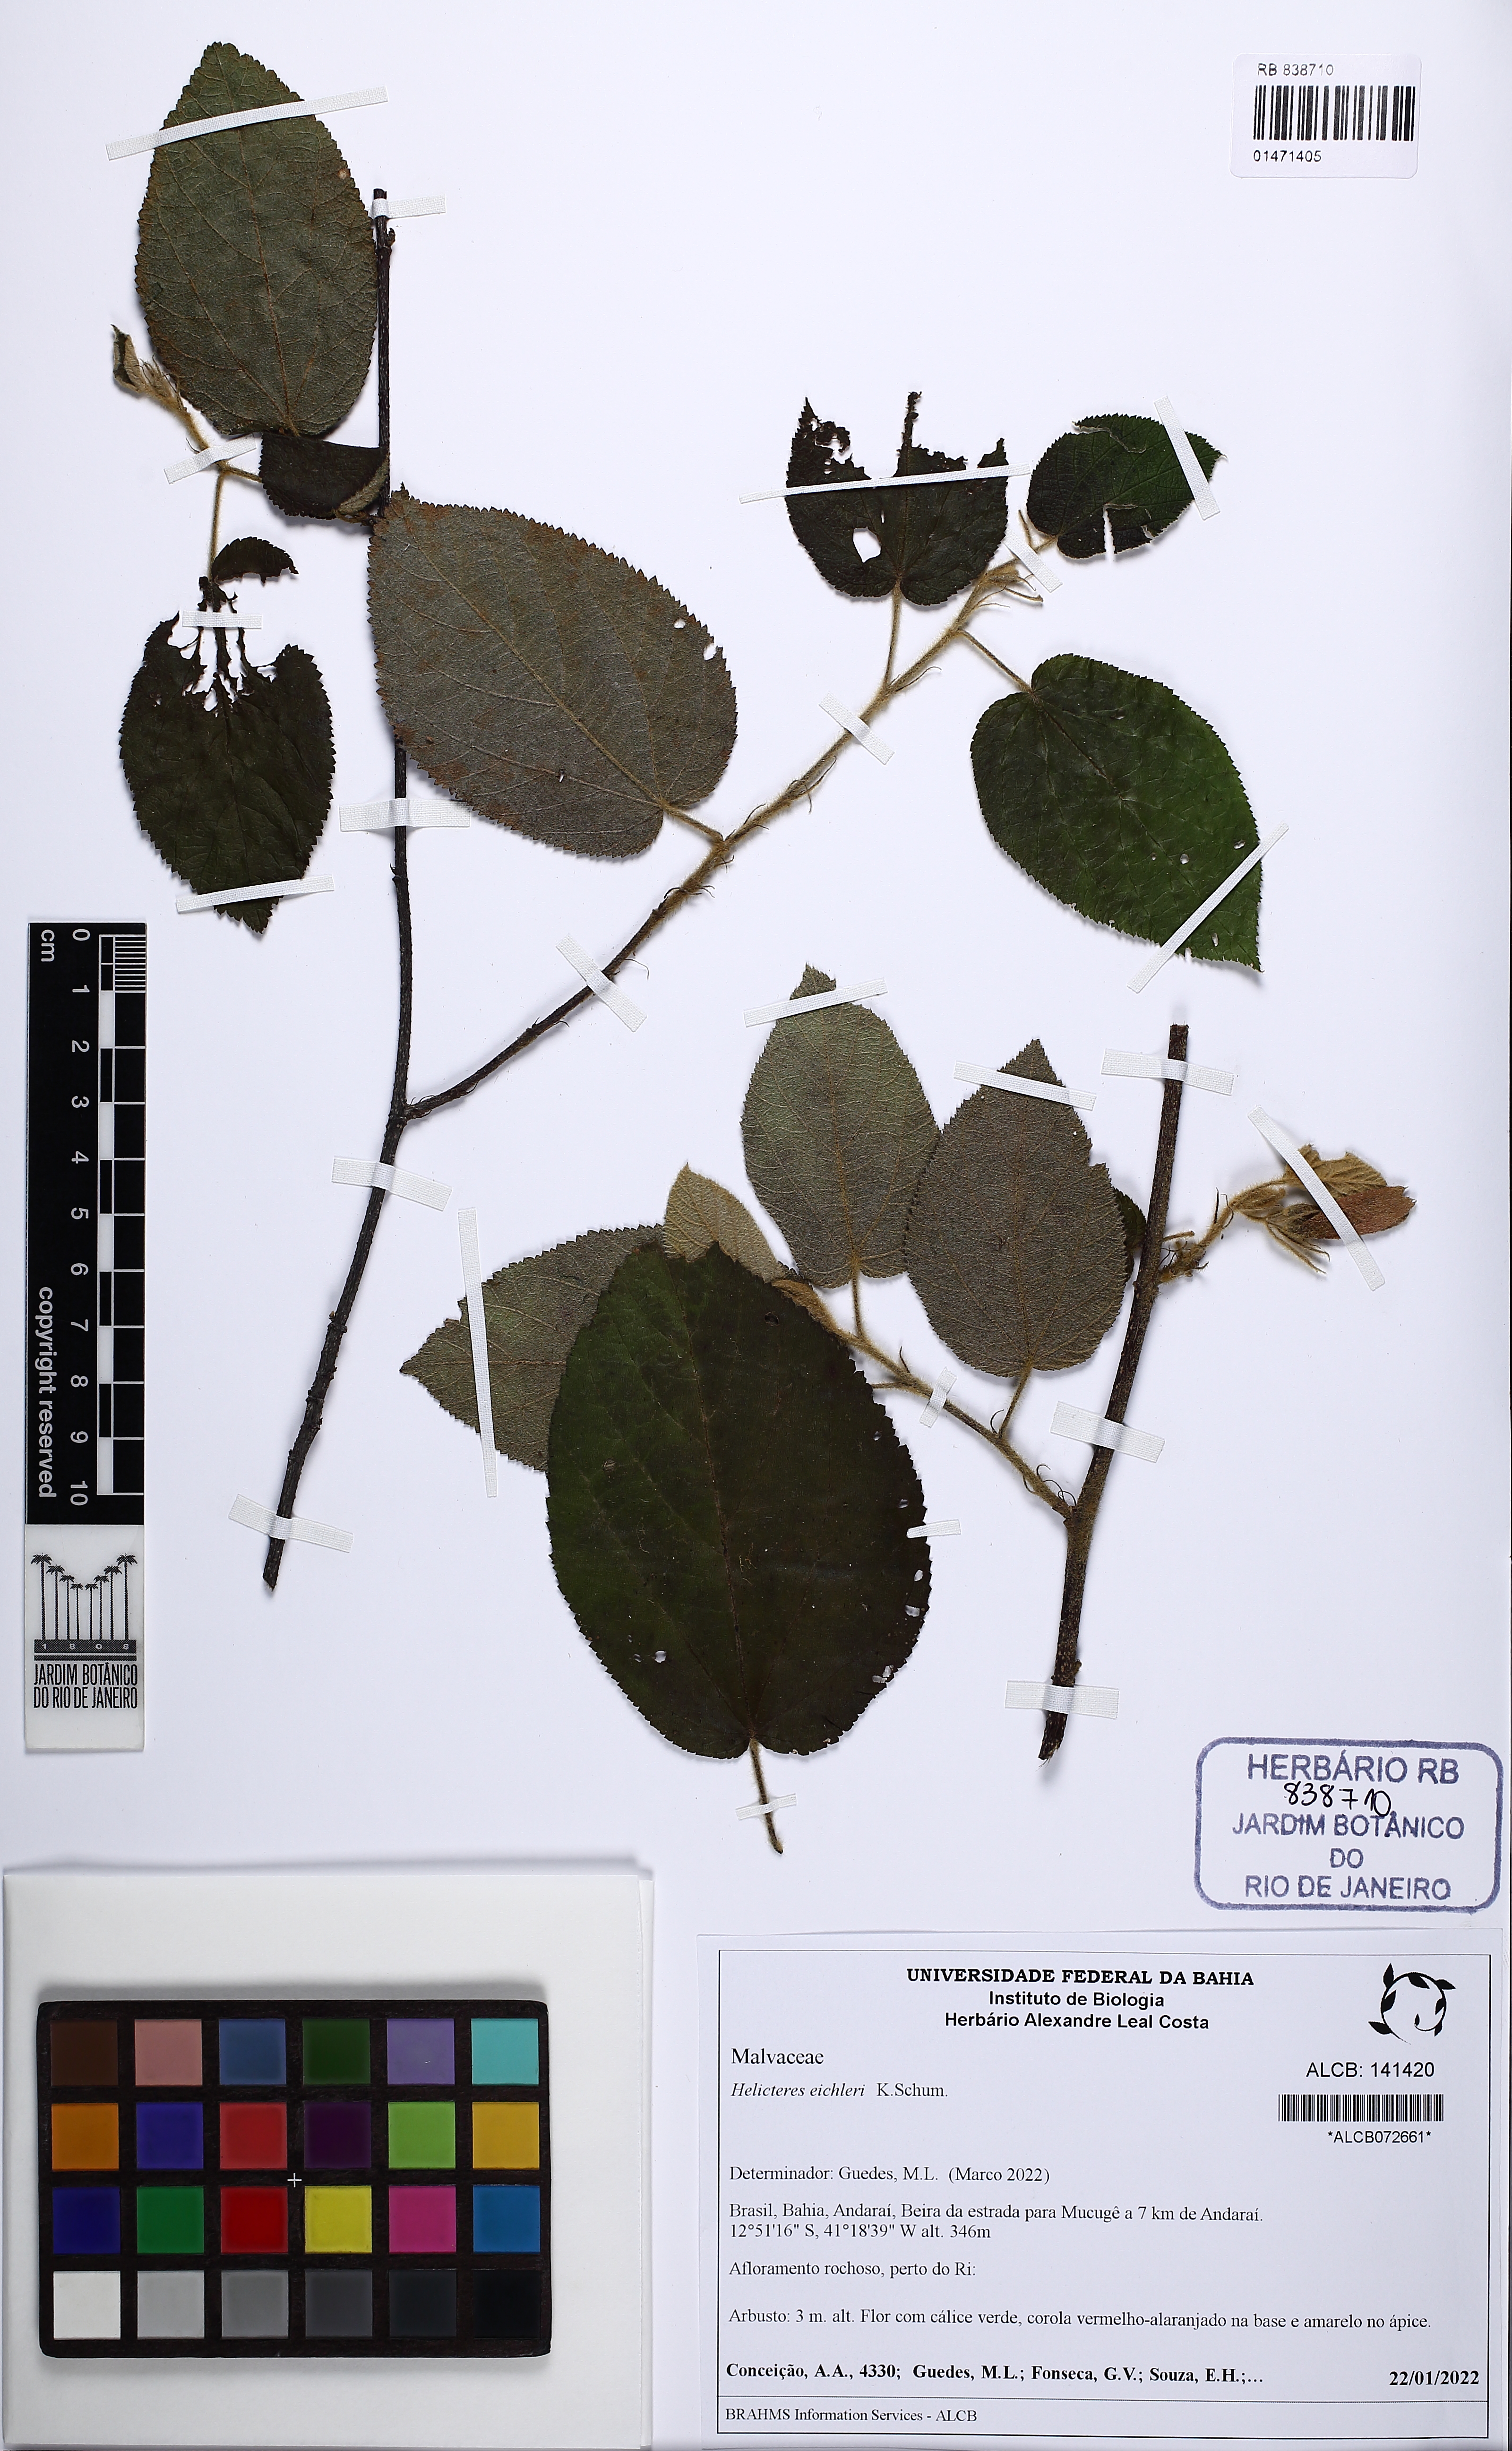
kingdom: Plantae
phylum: Tracheophyta
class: Magnoliopsida
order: Malvales
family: Malvaceae
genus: Helicteres
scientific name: Helicteres eichleri
